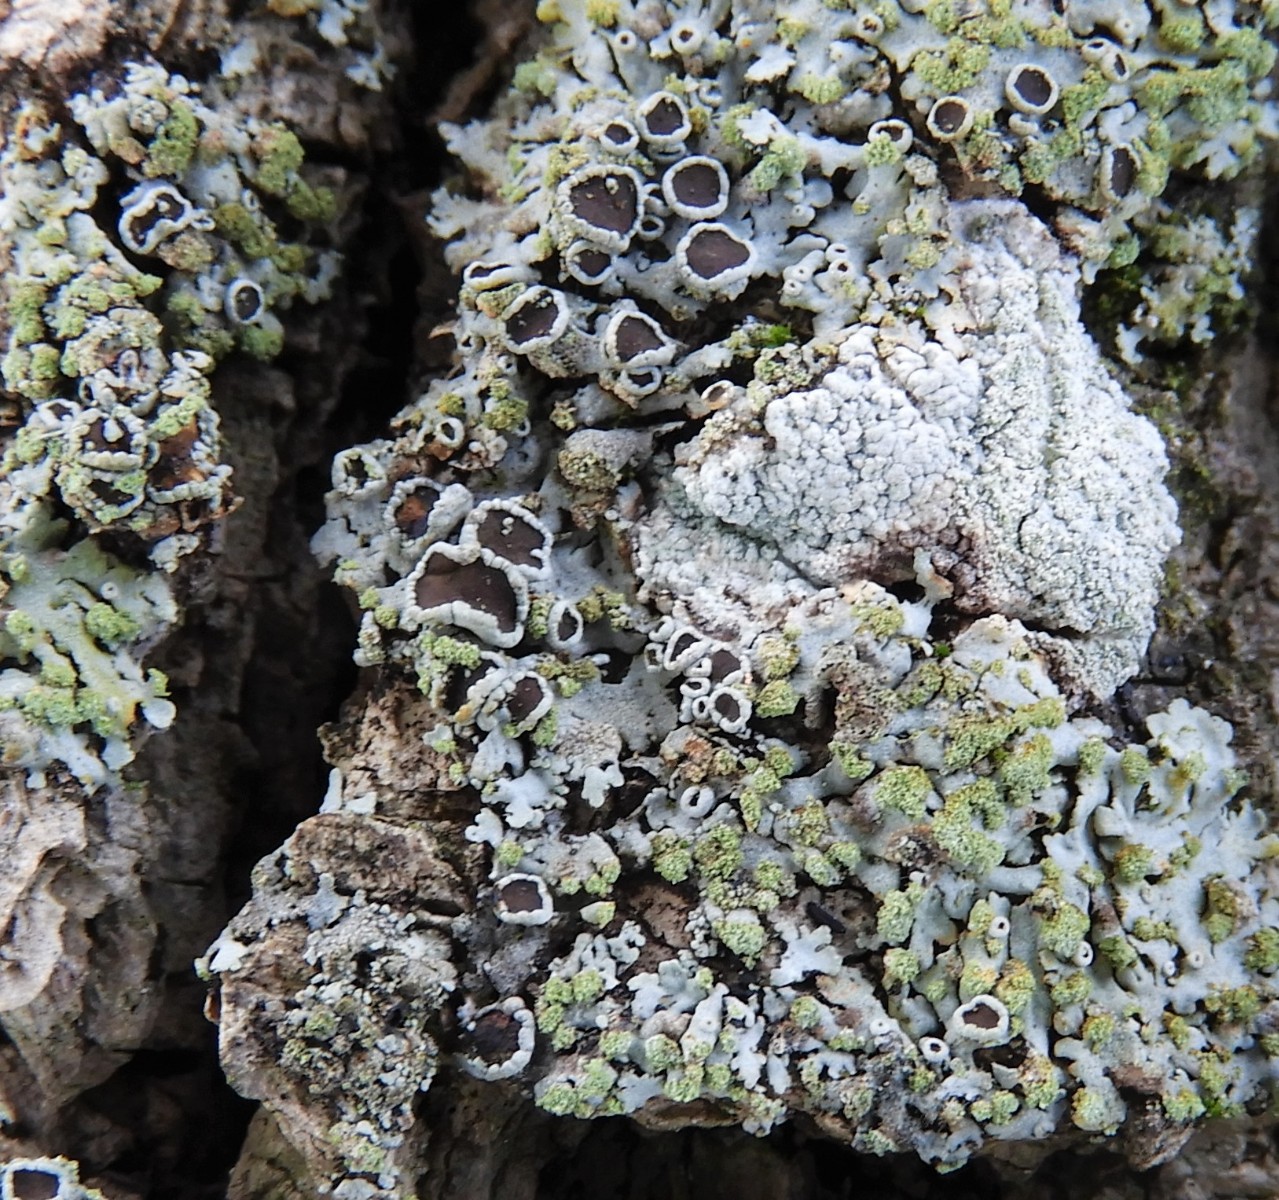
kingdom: Fungi
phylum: Ascomycota
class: Lecanoromycetes
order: Caliciales
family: Physciaceae
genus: Phaeophyscia
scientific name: Phaeophyscia orbicularis
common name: grågrøn rosetlav
